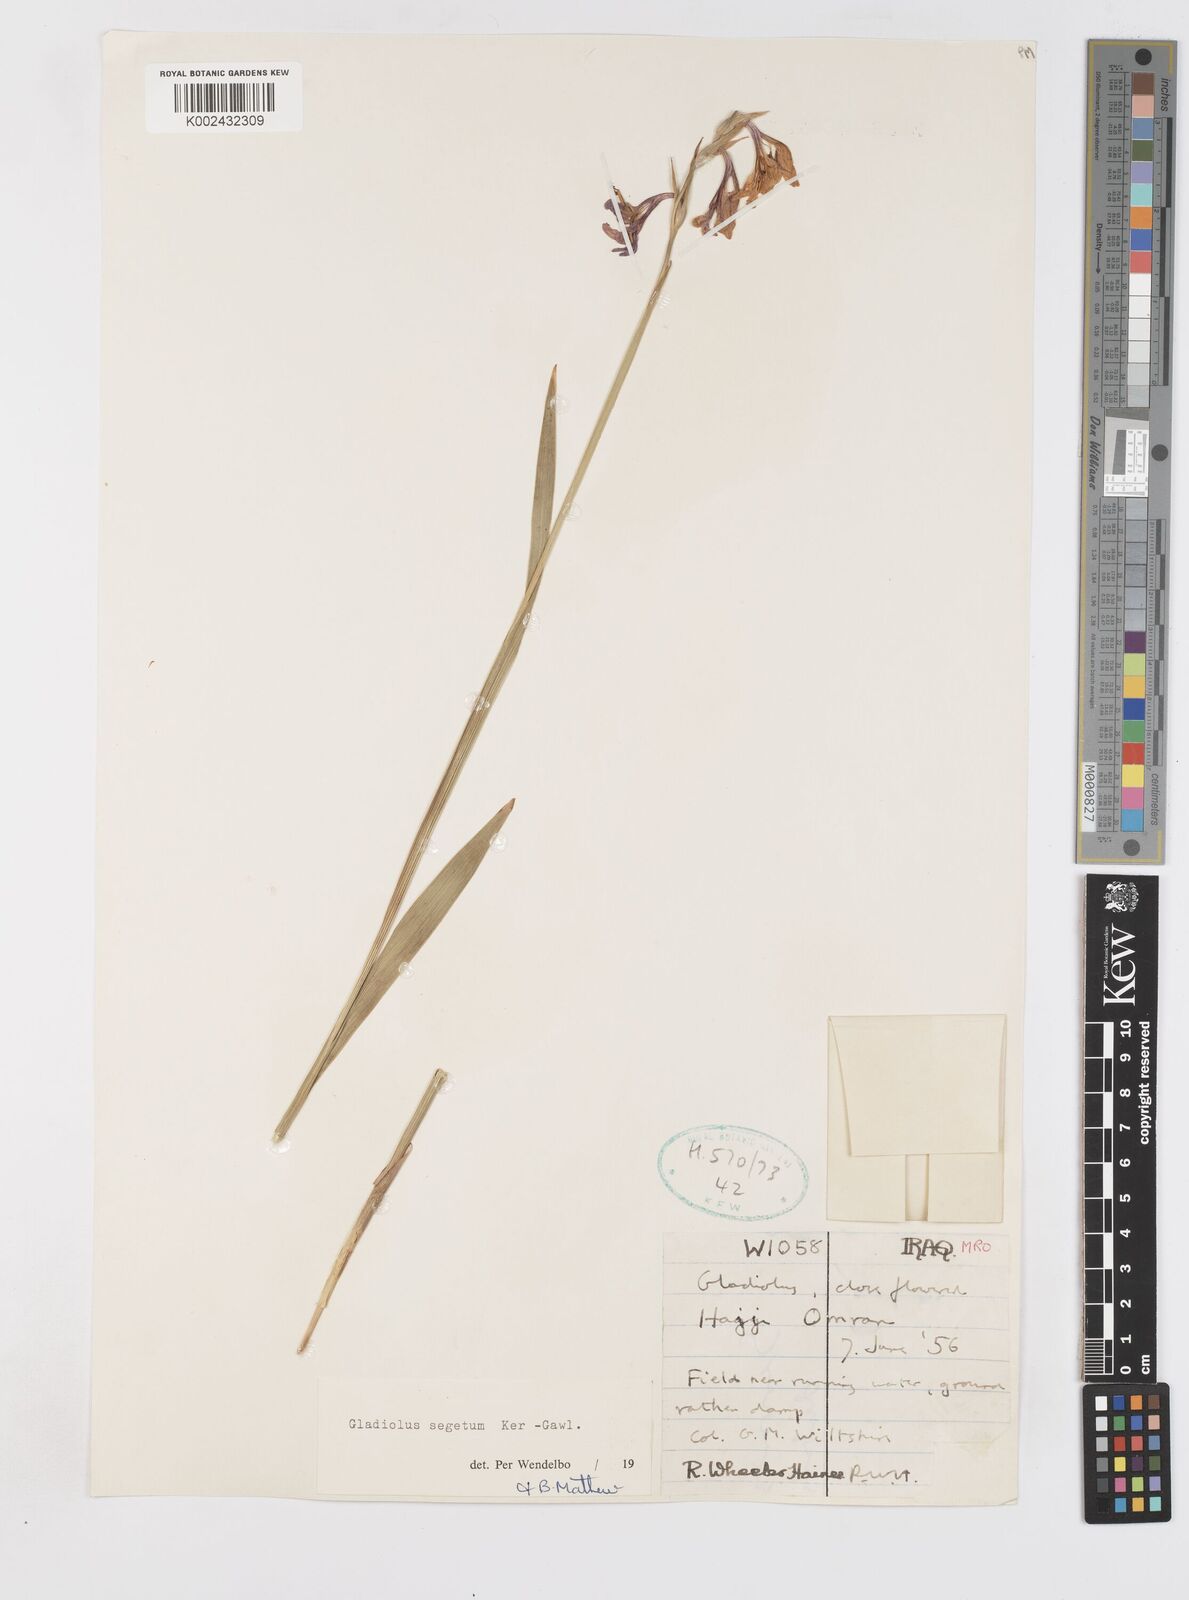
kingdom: Plantae
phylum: Tracheophyta
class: Liliopsida
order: Asparagales
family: Iridaceae
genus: Gladiolus
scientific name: Gladiolus italicus
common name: Field gladiolus
